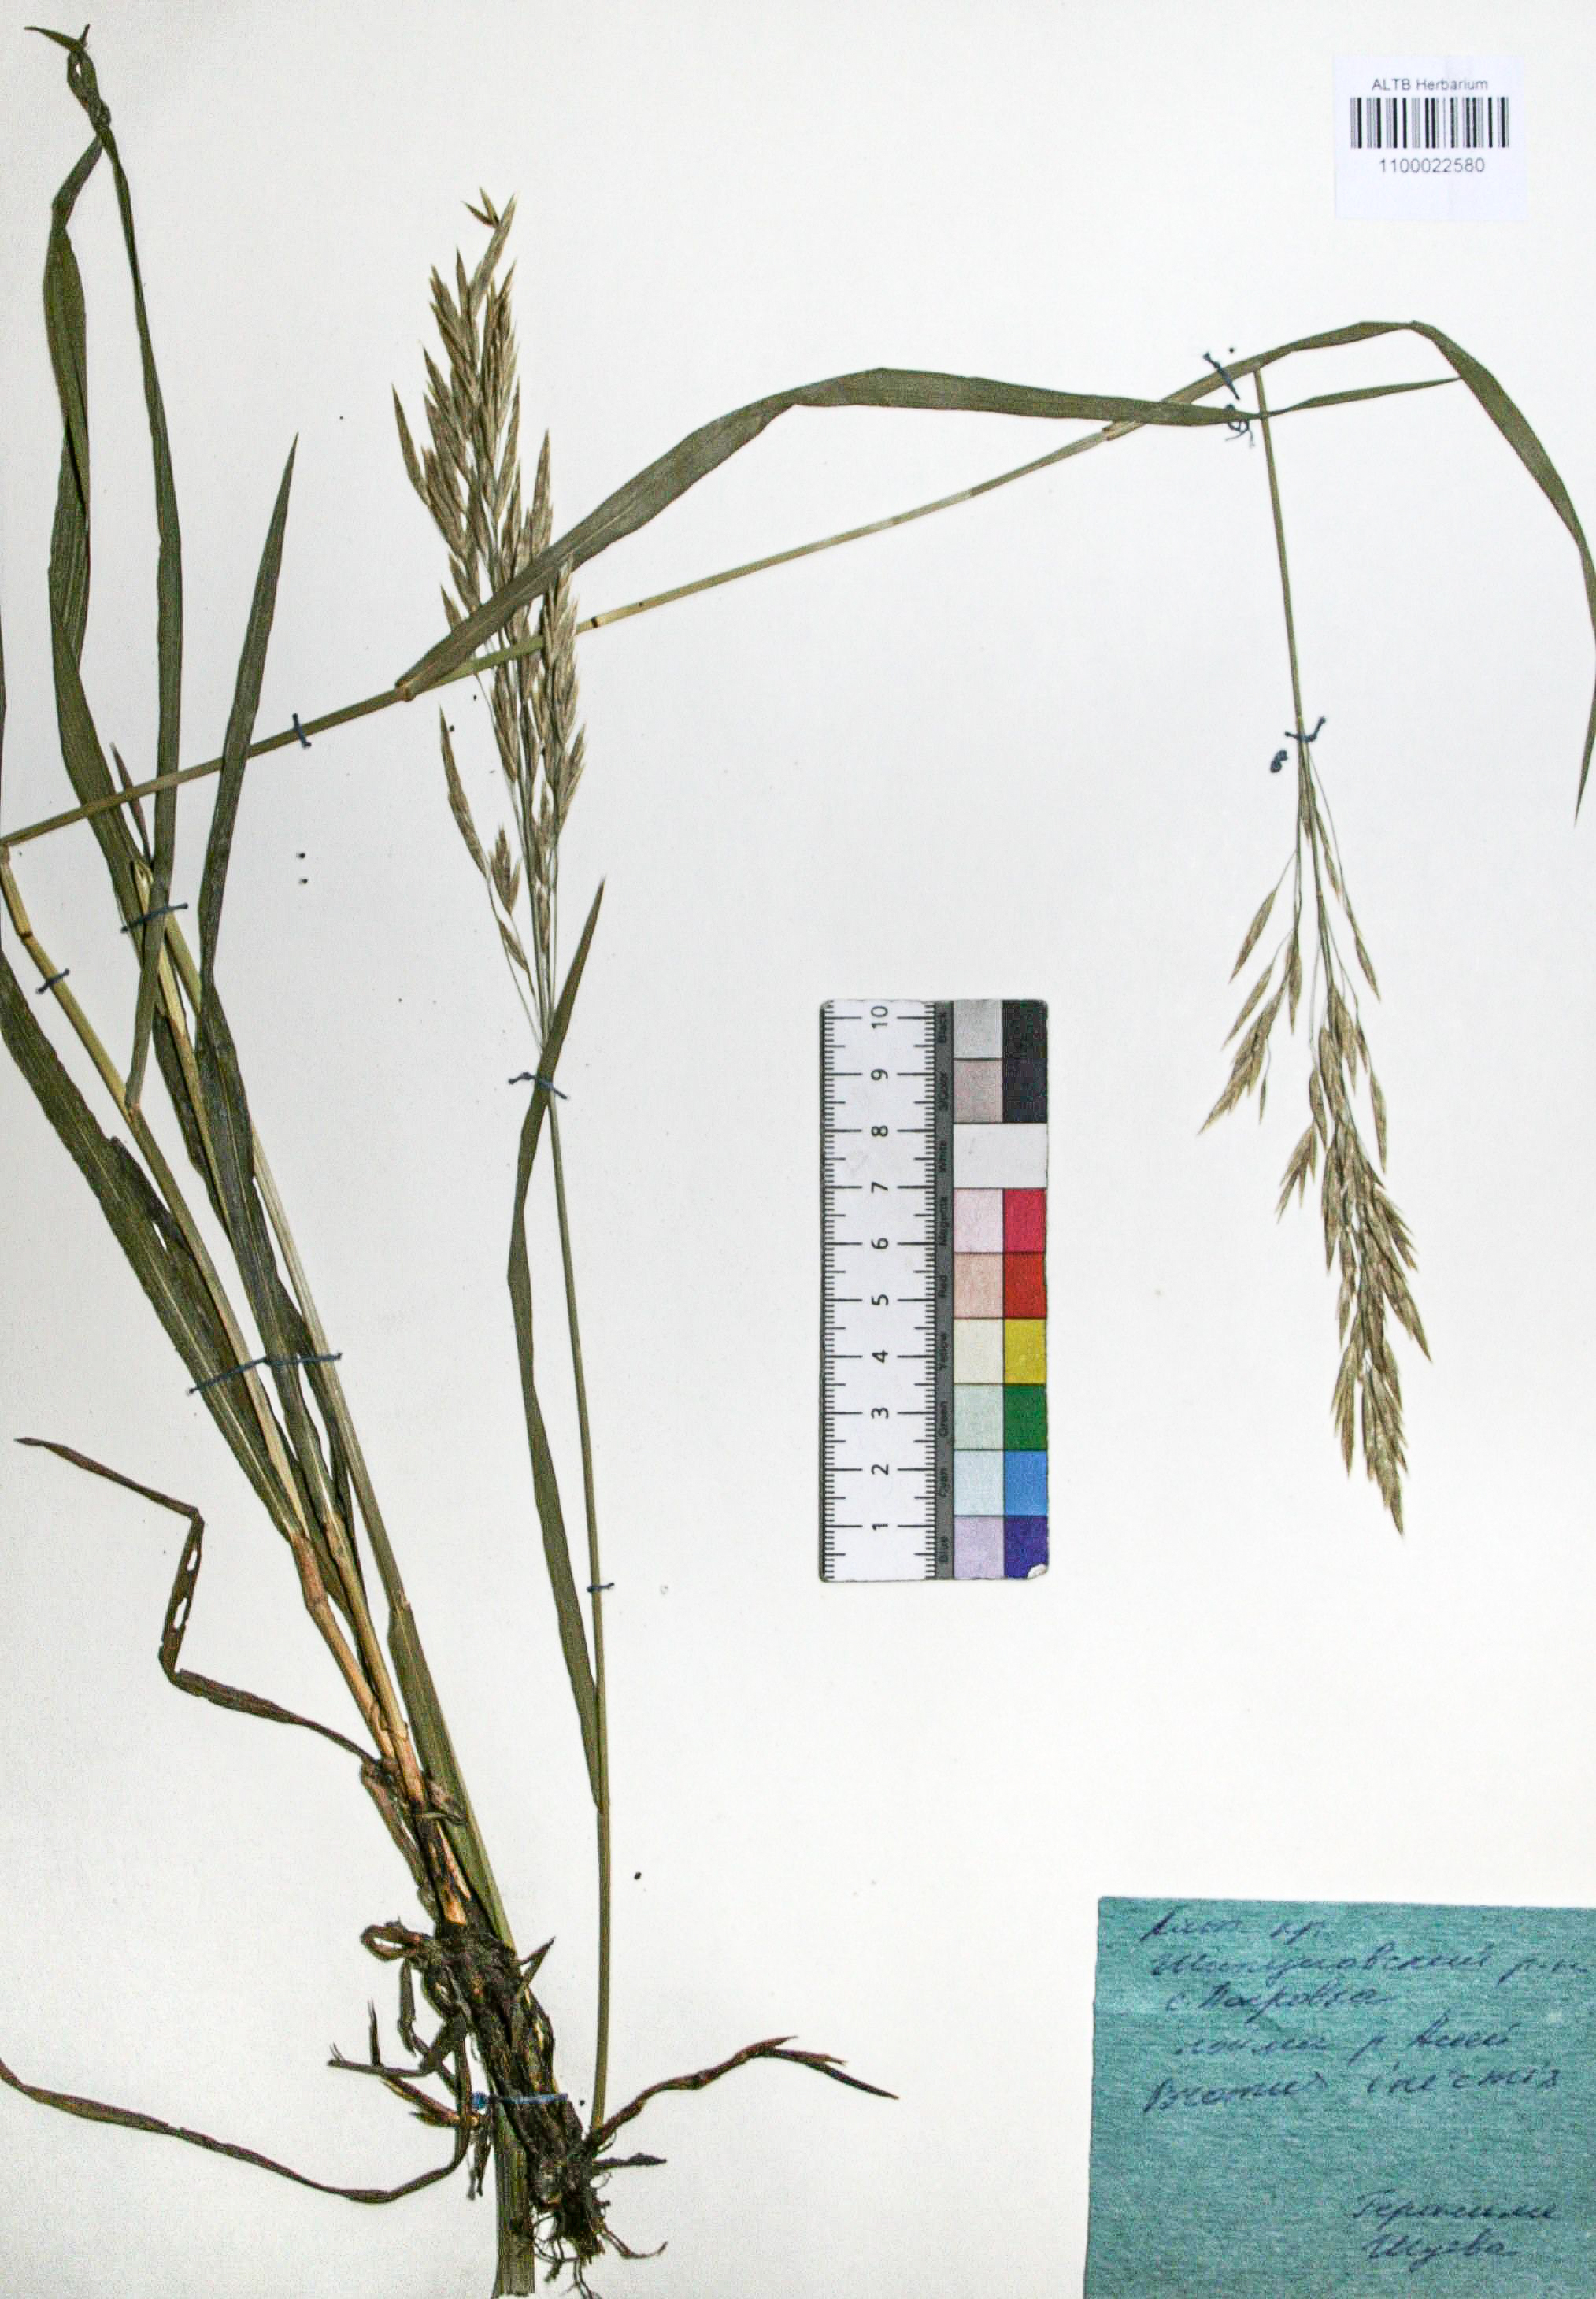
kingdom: Plantae
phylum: Tracheophyta
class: Liliopsida
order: Poales
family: Poaceae
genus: Bromus
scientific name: Bromus inermis
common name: Smooth brome
